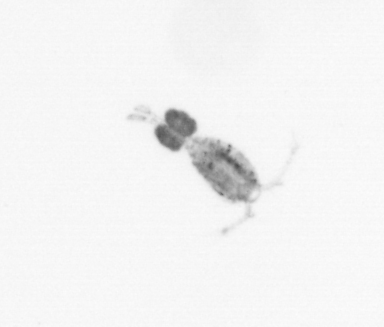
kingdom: Animalia
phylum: Arthropoda
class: Copepoda
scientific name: Copepoda
